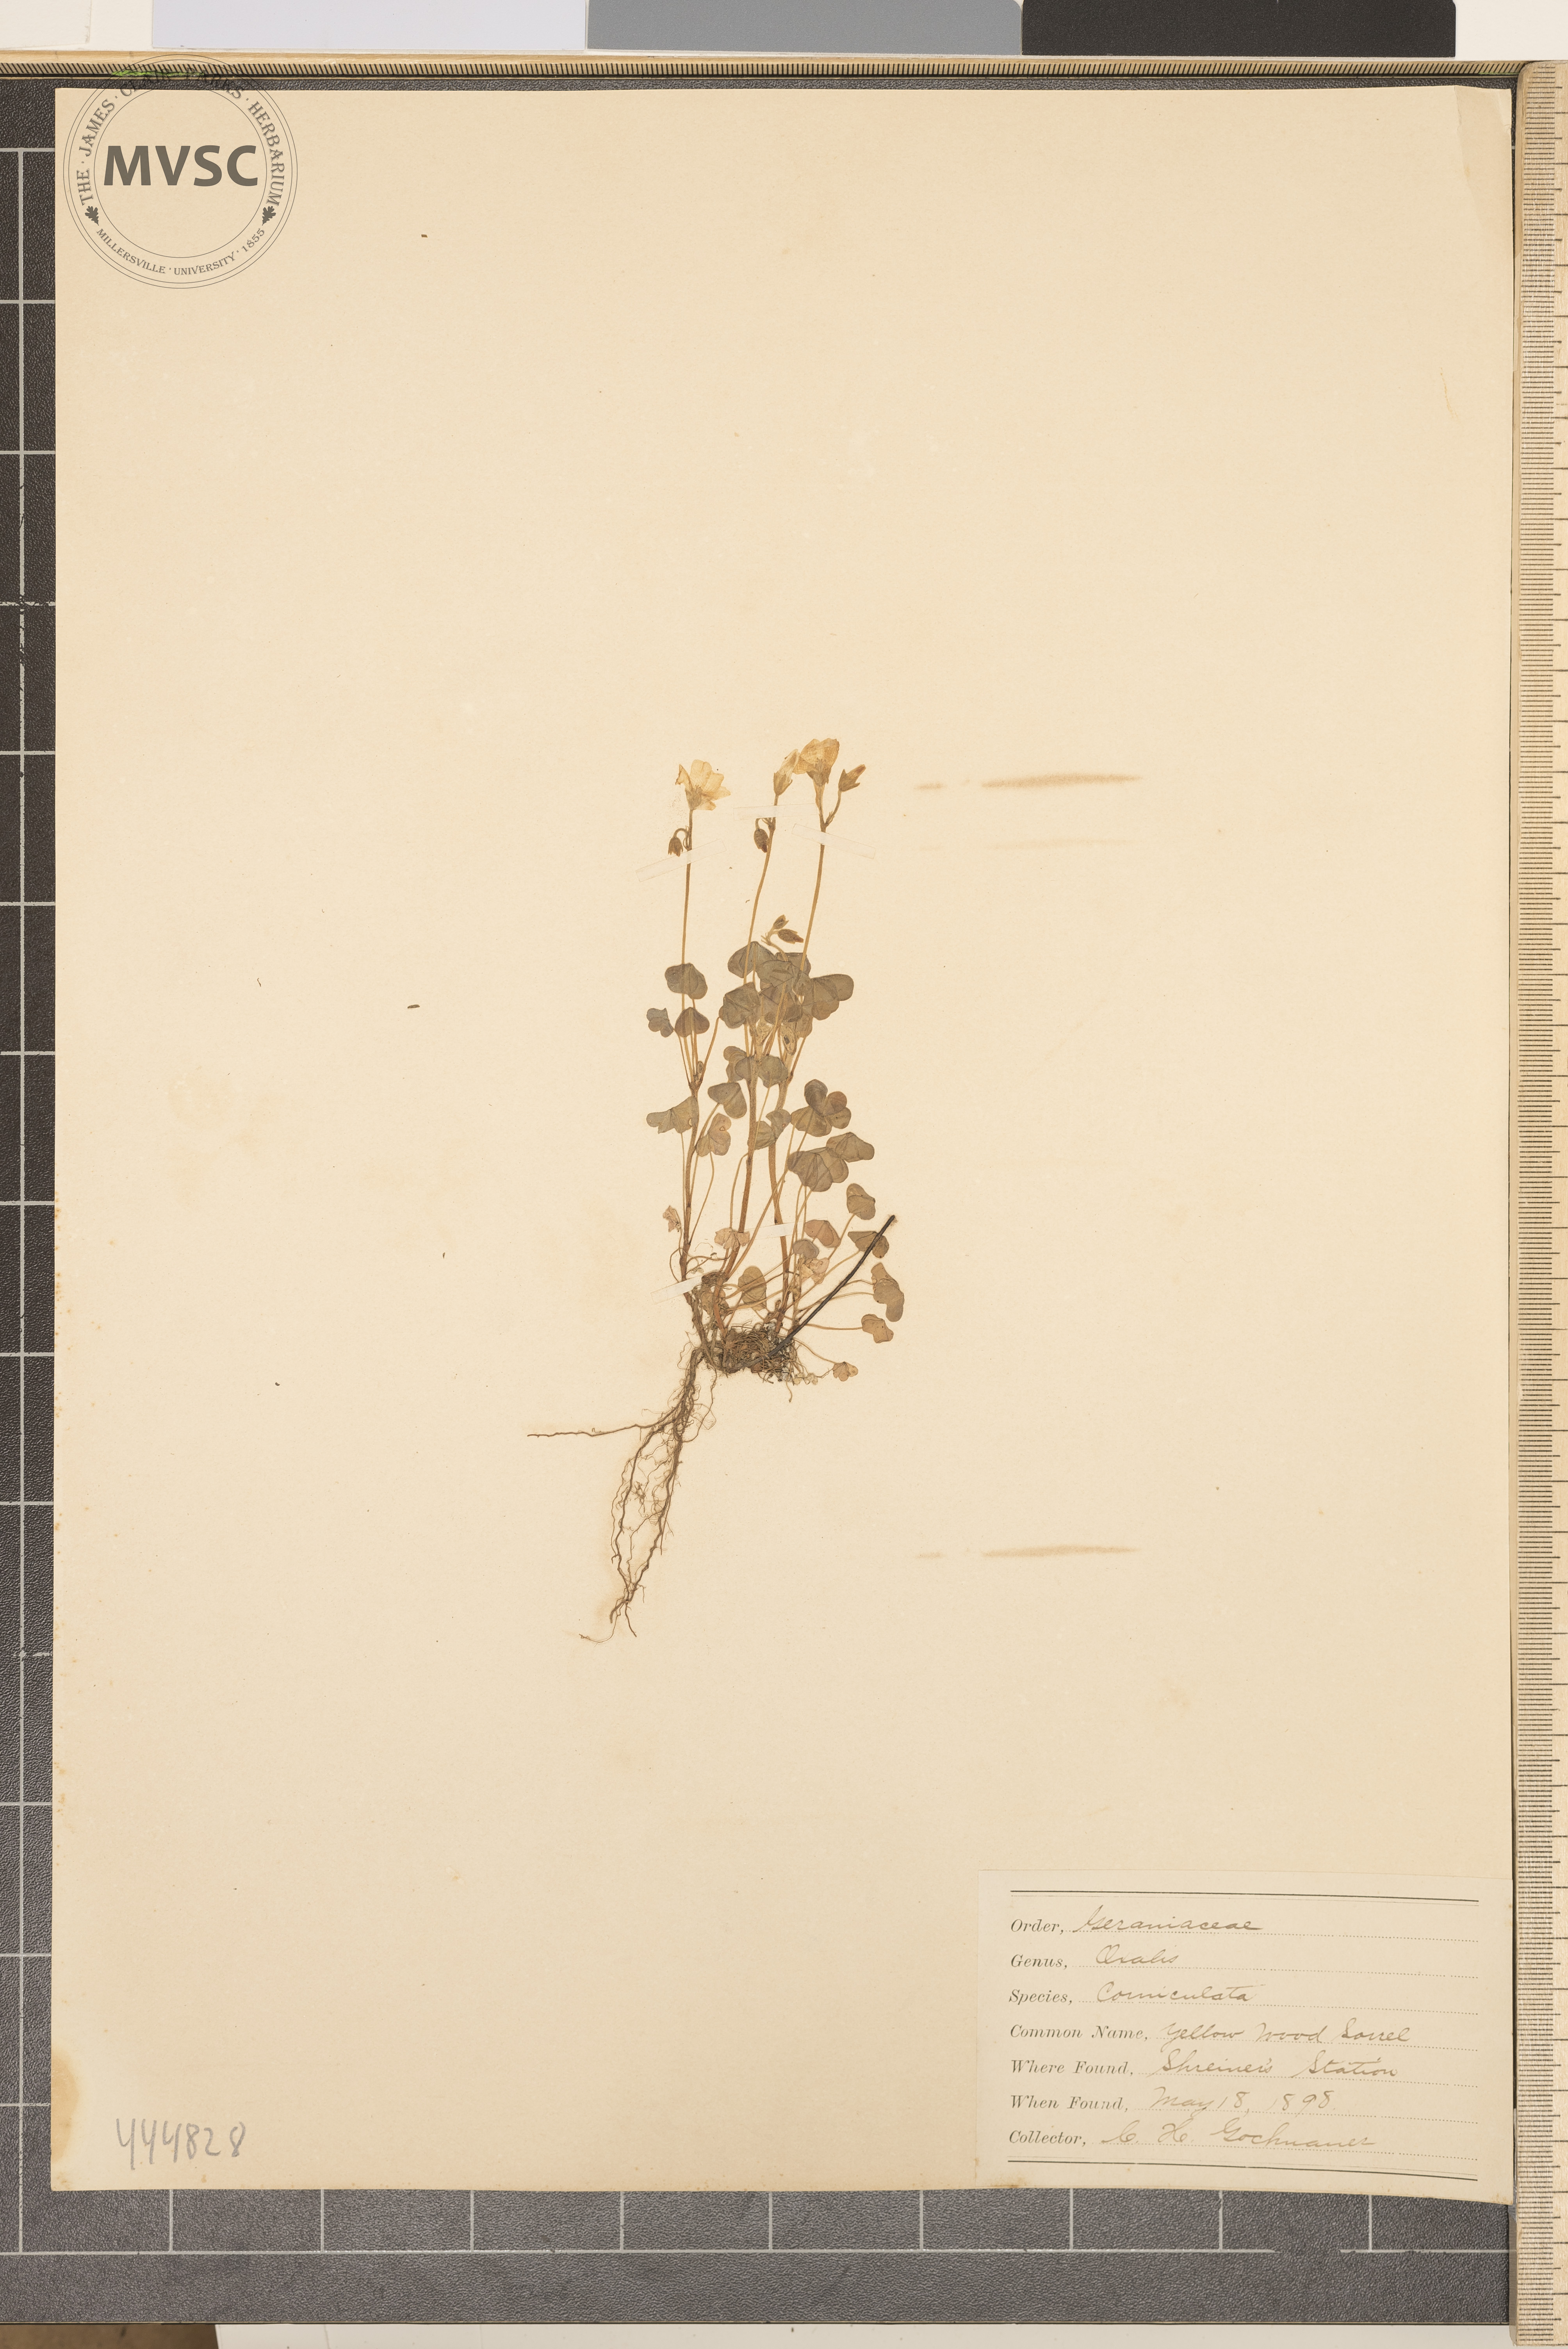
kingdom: Plantae
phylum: Tracheophyta
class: Magnoliopsida
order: Oxalidales
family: Oxalidaceae
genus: Oxalis
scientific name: Oxalis corniculata
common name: Procumbent yellow-sorrel
